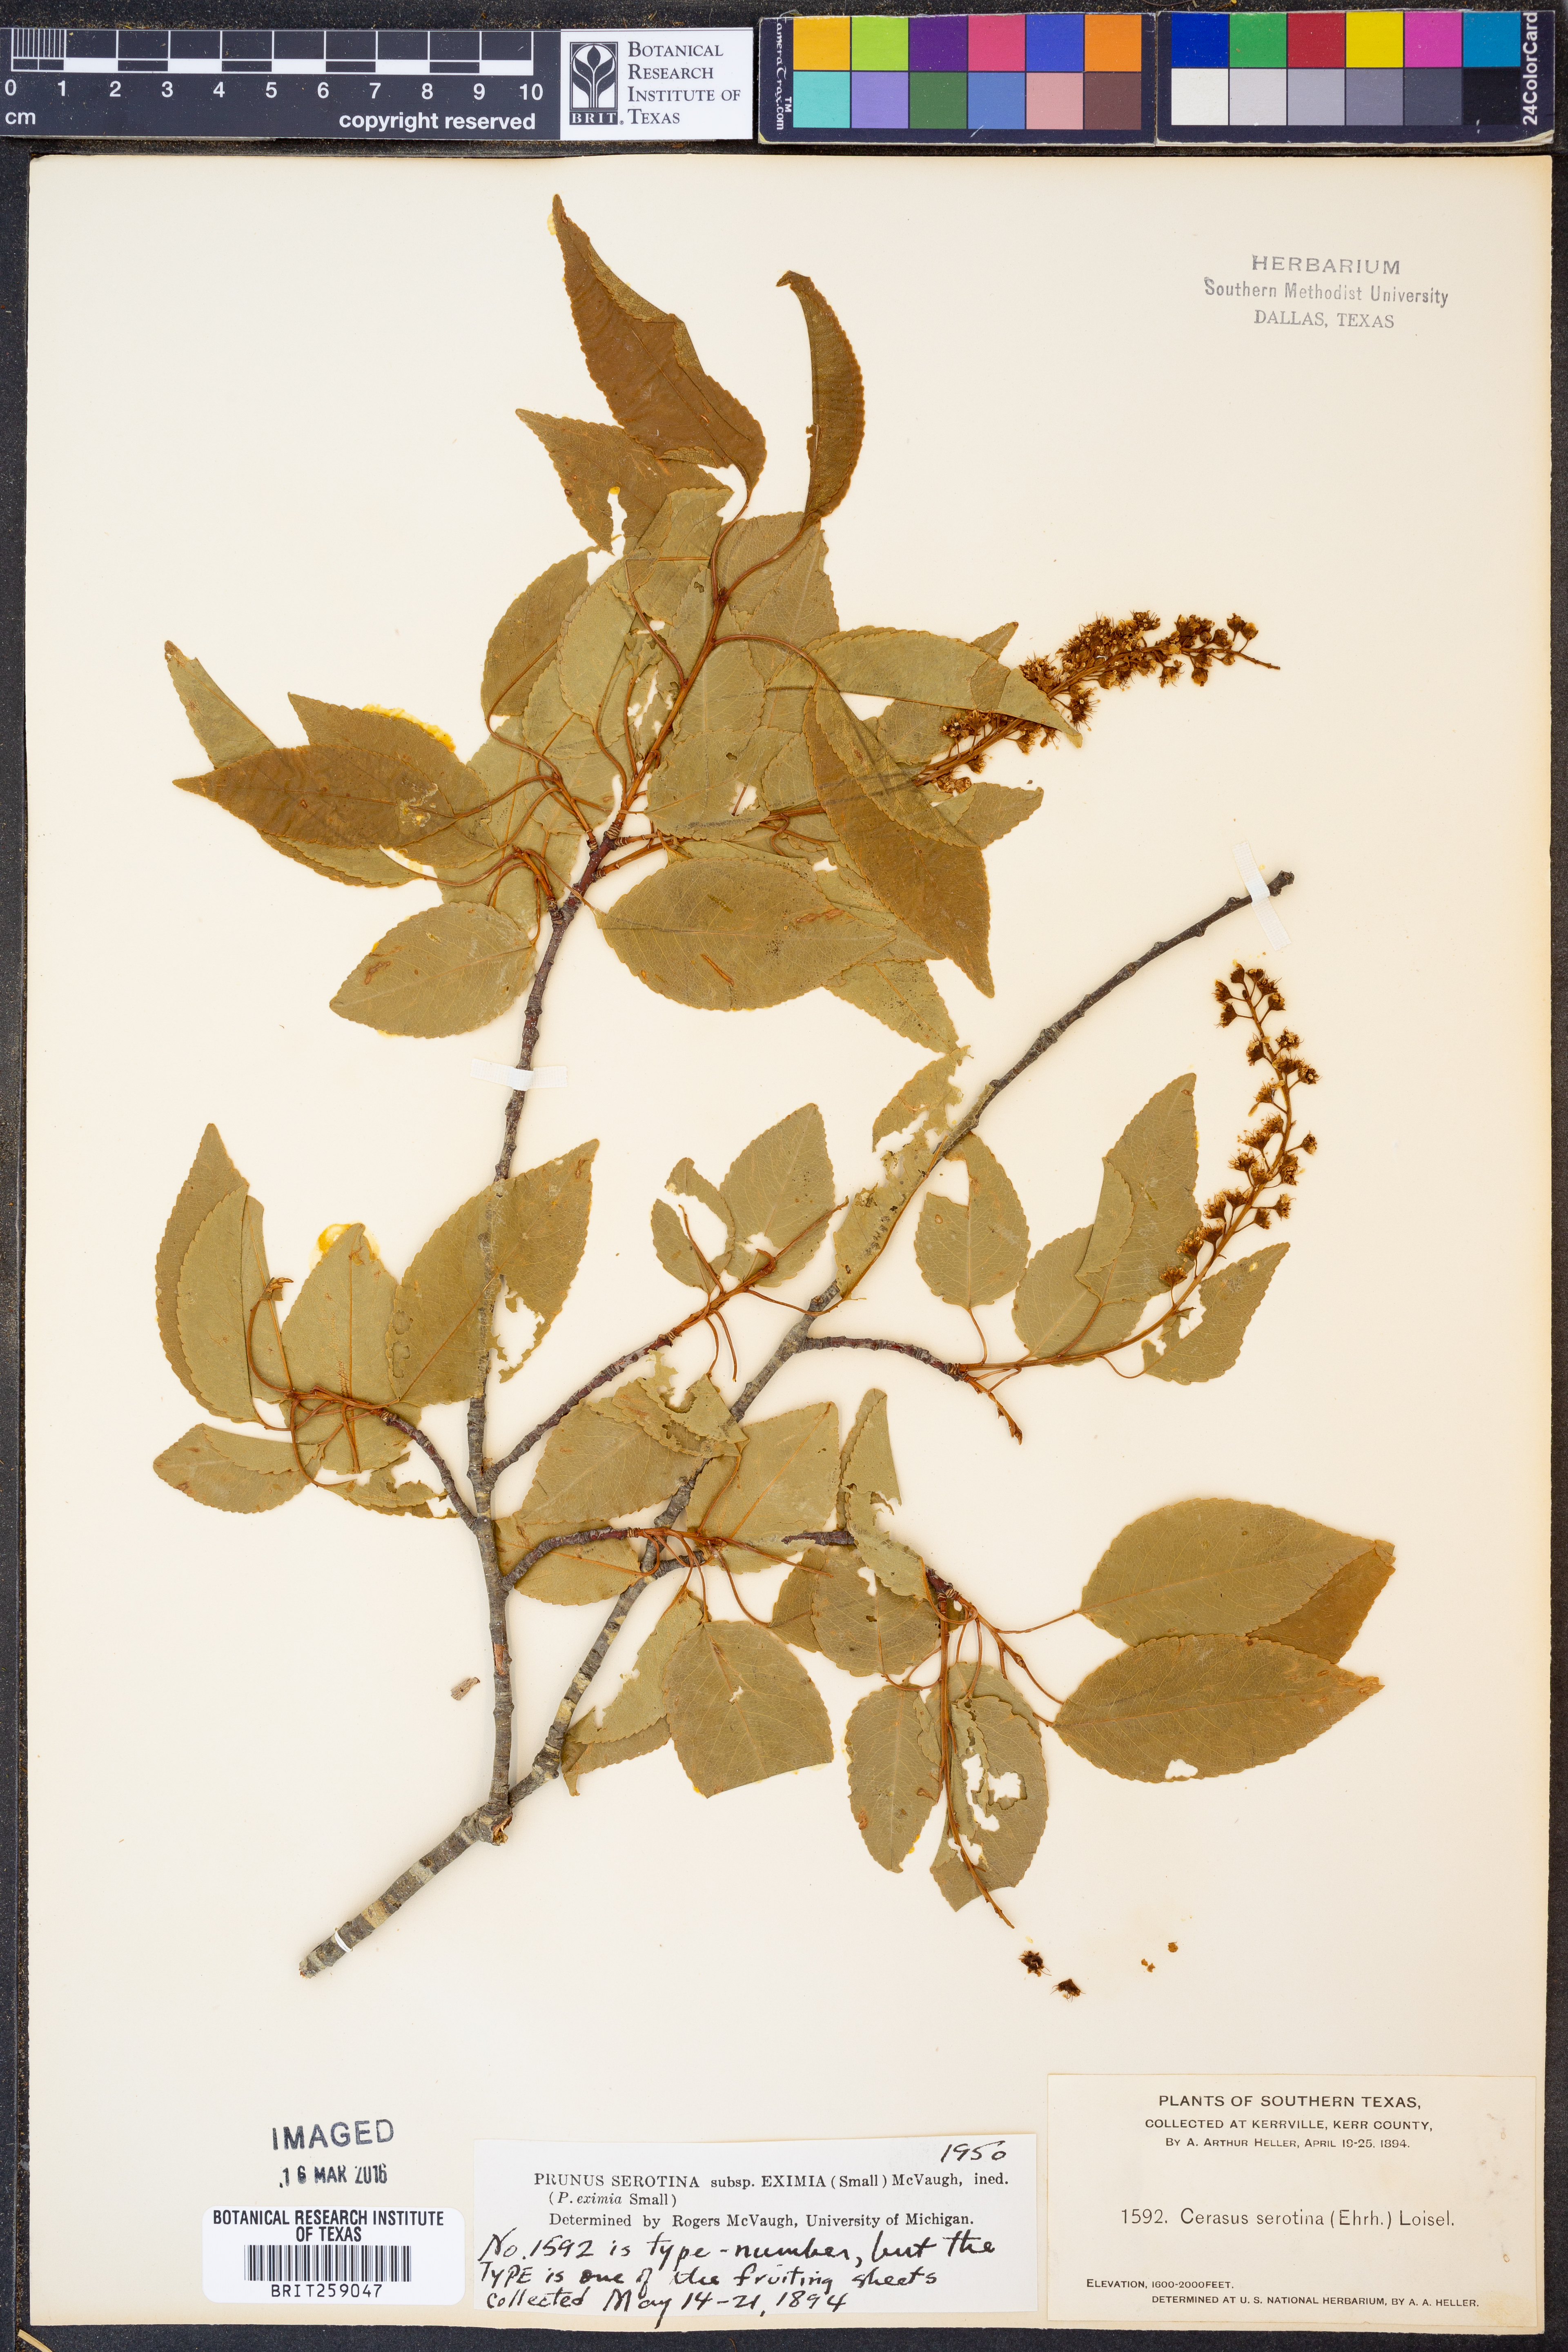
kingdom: Plantae
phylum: Tracheophyta
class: Magnoliopsida
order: Rosales
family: Rosaceae
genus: Prunus
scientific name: Prunus serotina
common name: Black cherry
